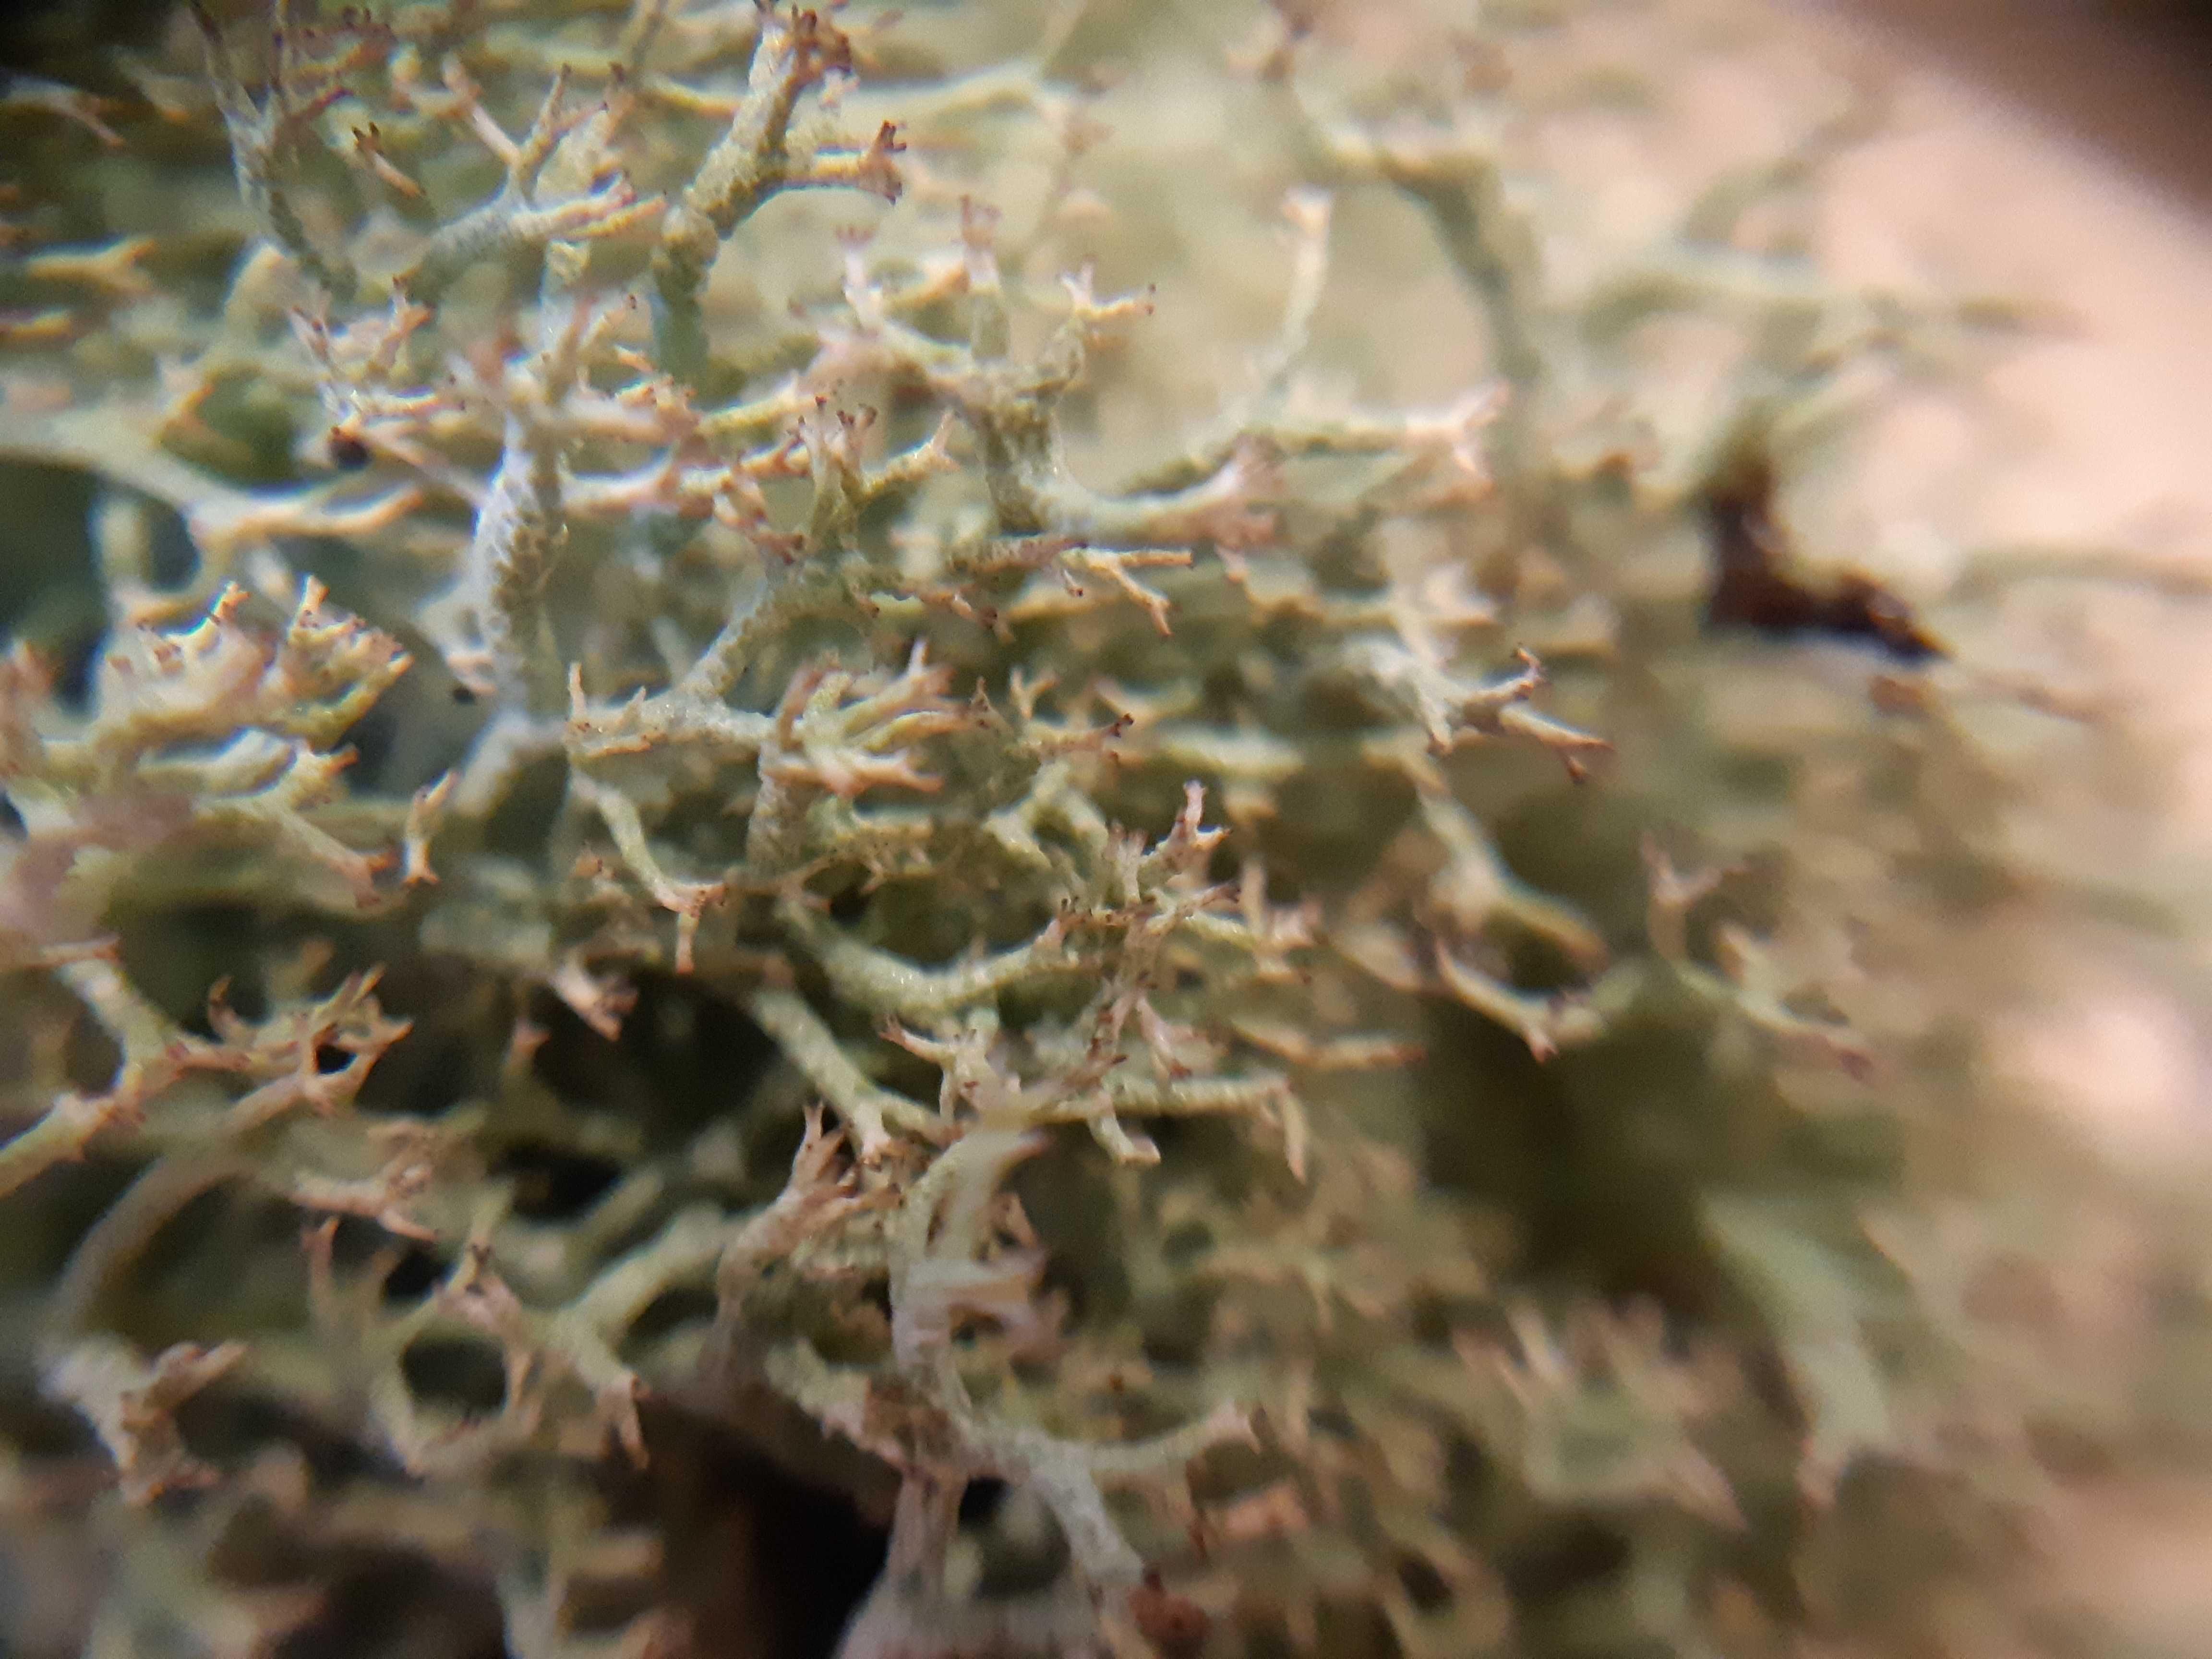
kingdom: Fungi
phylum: Ascomycota
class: Lecanoromycetes
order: Lecanorales
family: Cladoniaceae
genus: Cladonia
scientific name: Cladonia rangiformis
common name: spættet bægerlav
